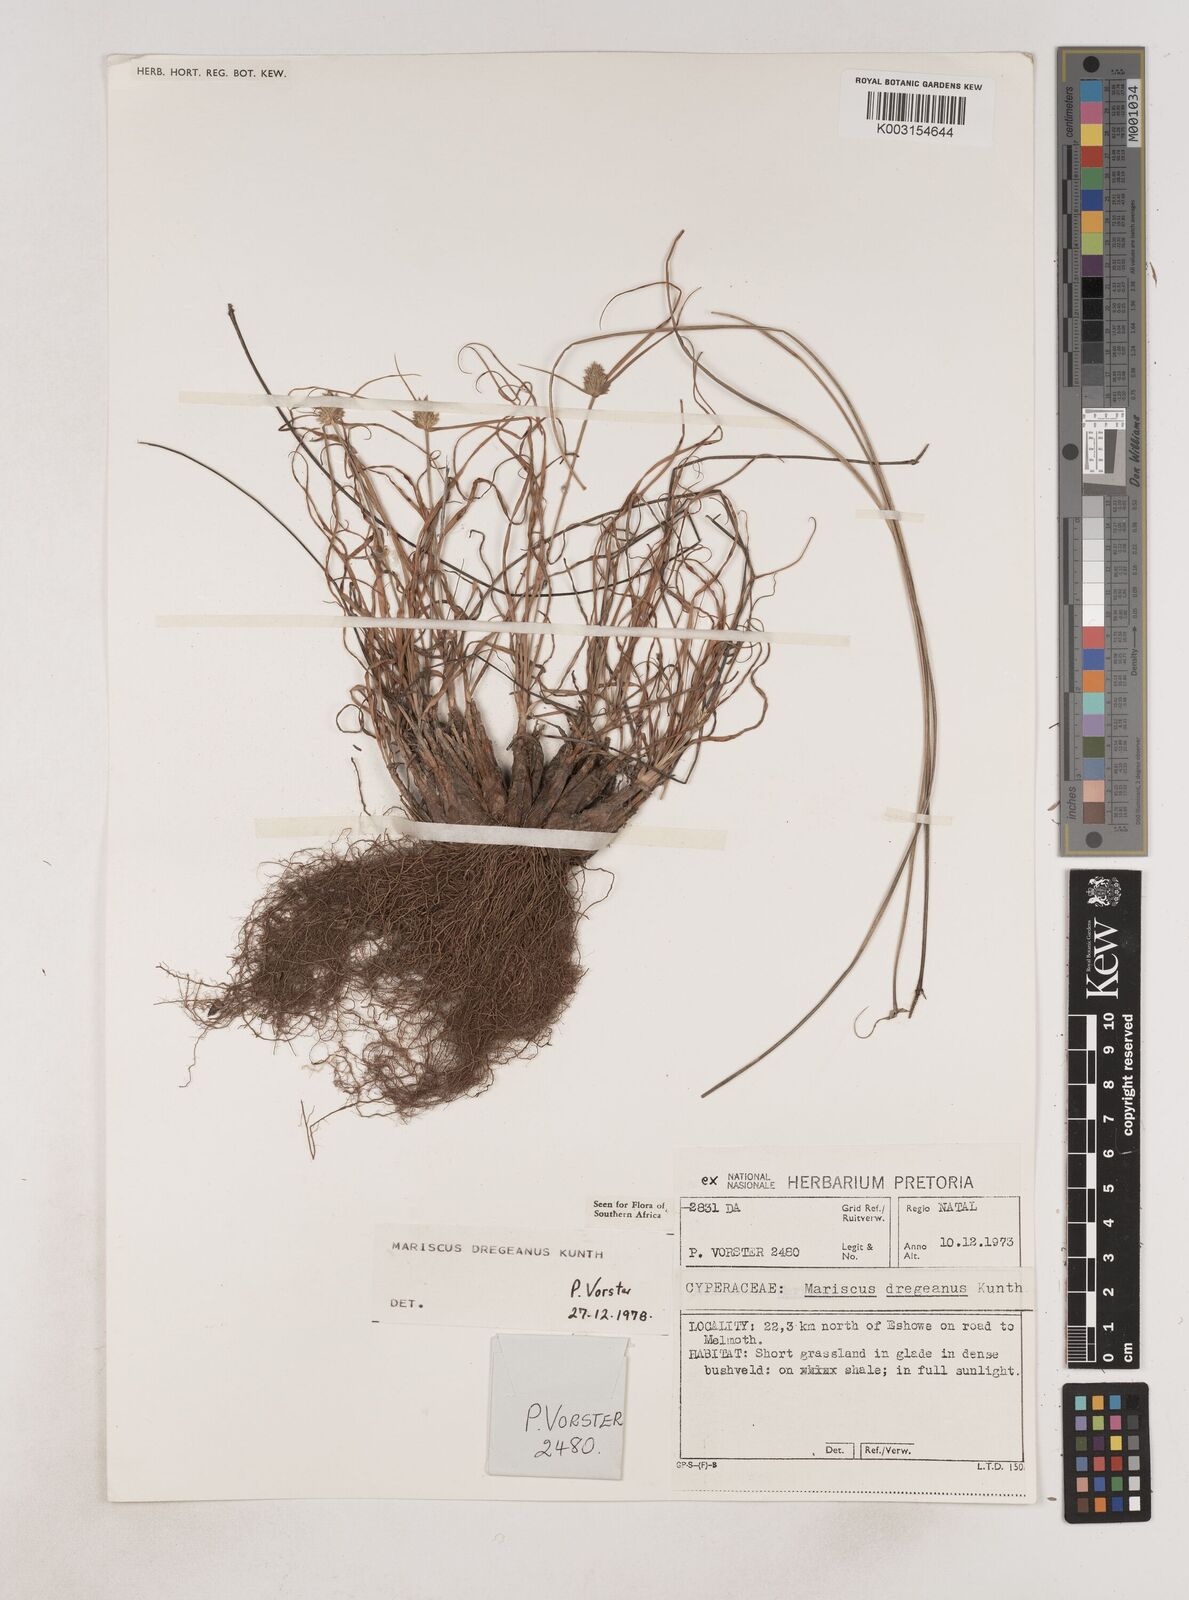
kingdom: Plantae
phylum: Tracheophyta
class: Liliopsida
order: Poales
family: Cyperaceae
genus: Cyperus
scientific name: Cyperus dubius
